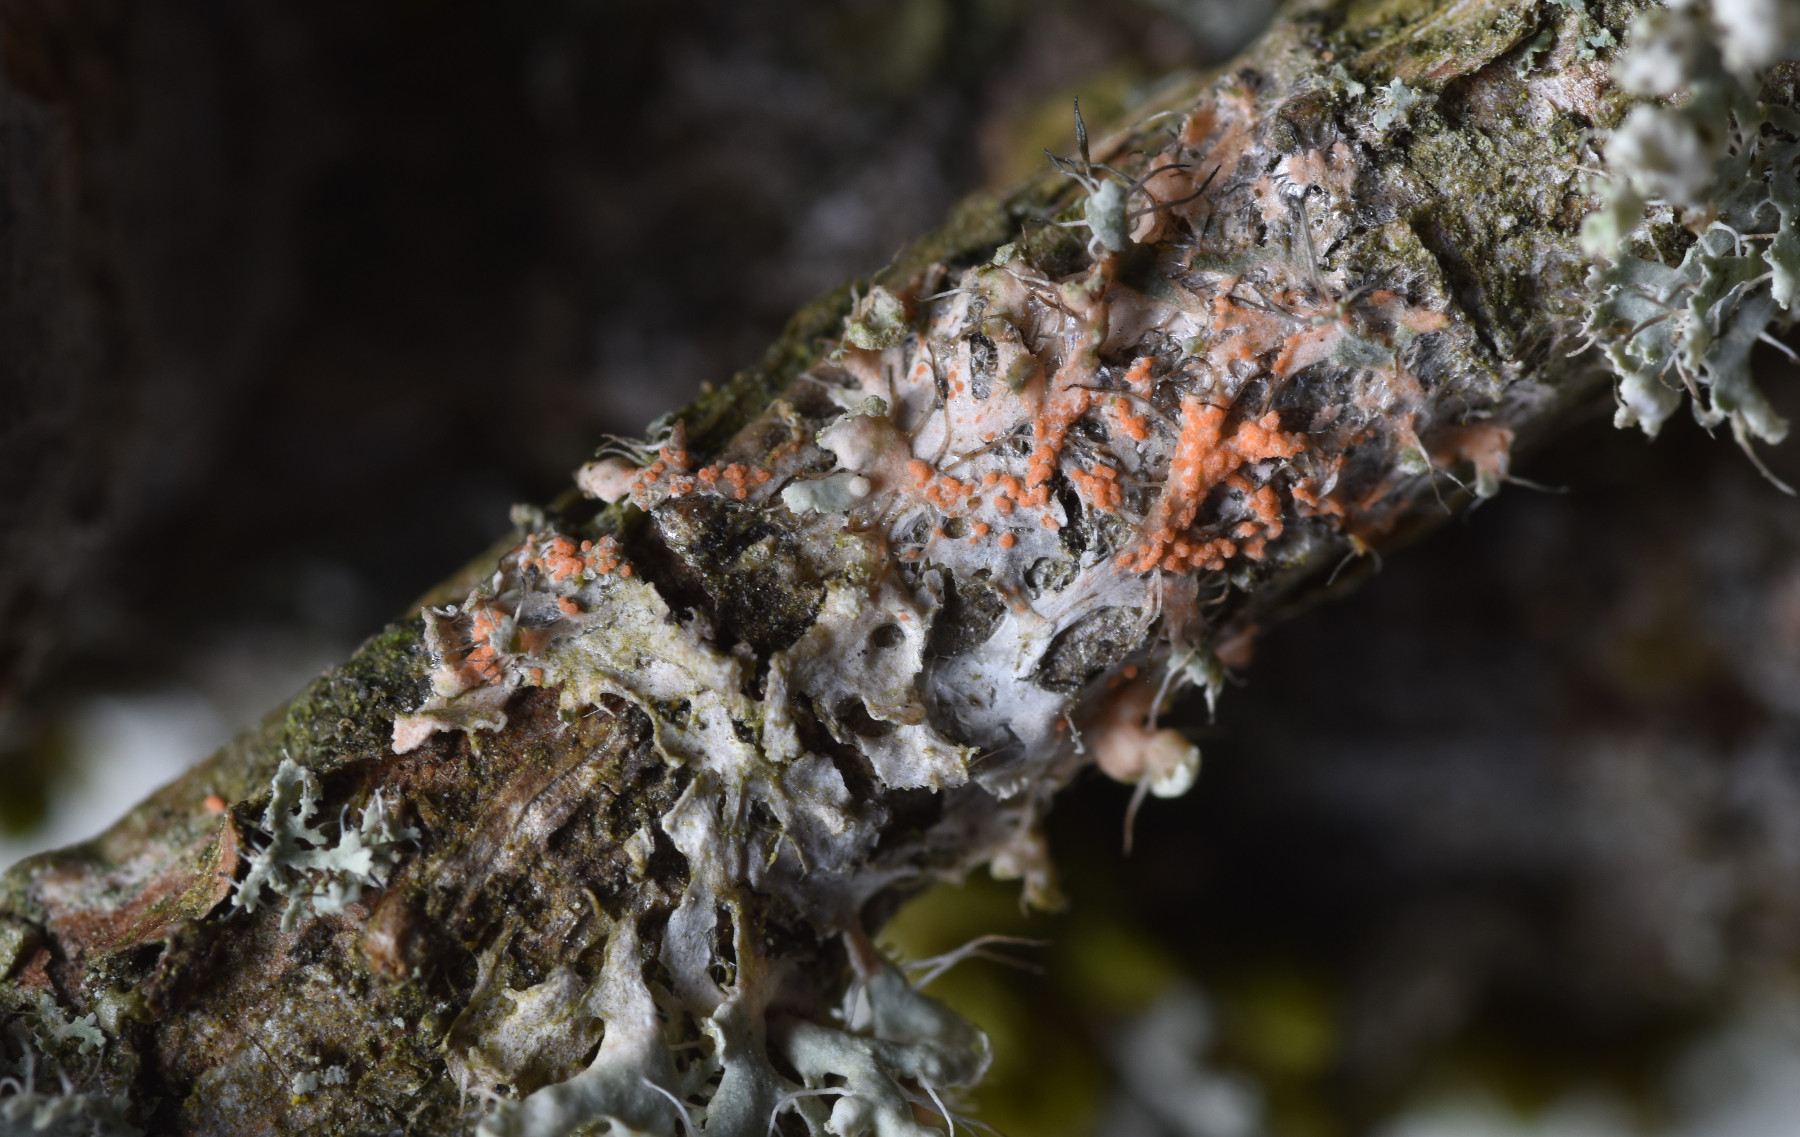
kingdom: Fungi
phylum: Basidiomycota
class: Agaricomycetes
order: Corticiales
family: Corticiaceae
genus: Erythricium
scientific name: Erythricium aurantiacum
